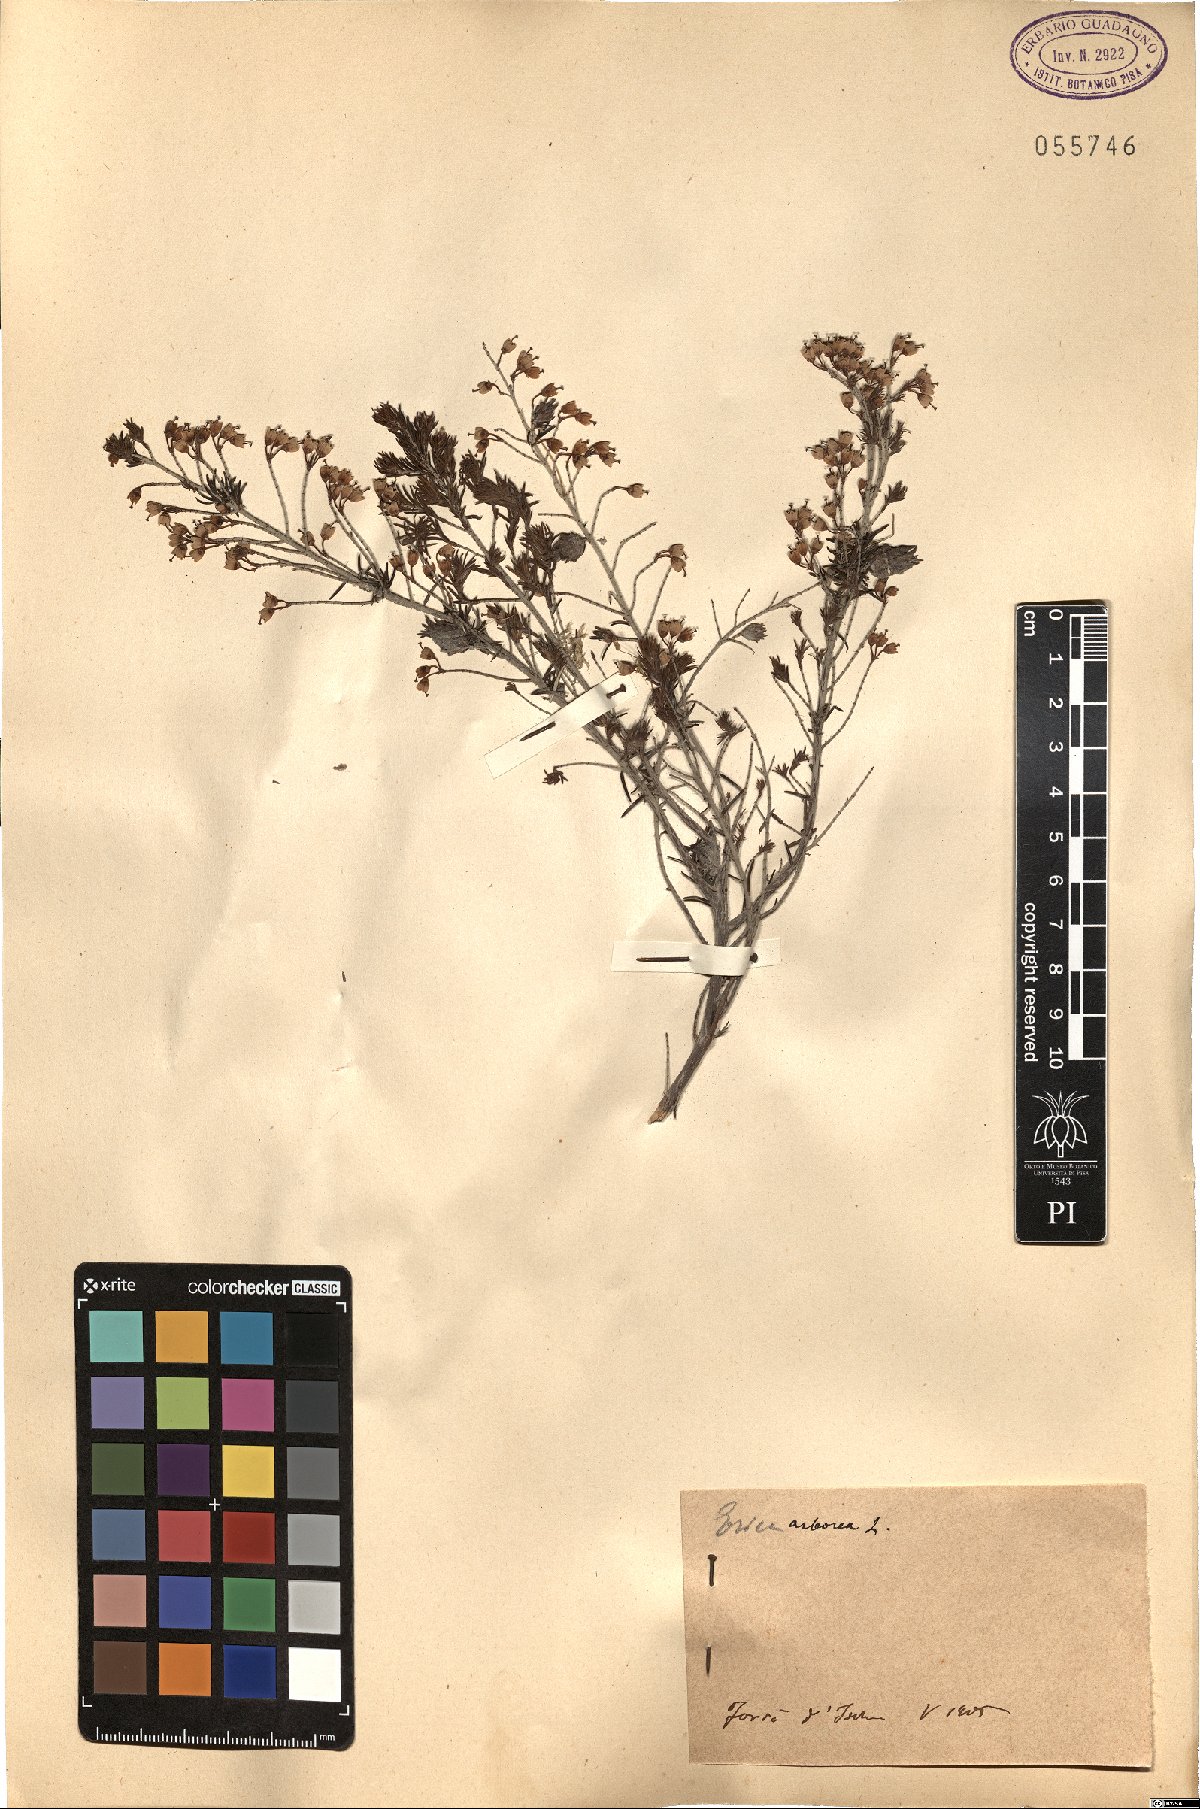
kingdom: Plantae
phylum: Tracheophyta
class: Magnoliopsida
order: Ericales
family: Ericaceae
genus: Erica
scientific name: Erica arborea
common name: Tree heath
